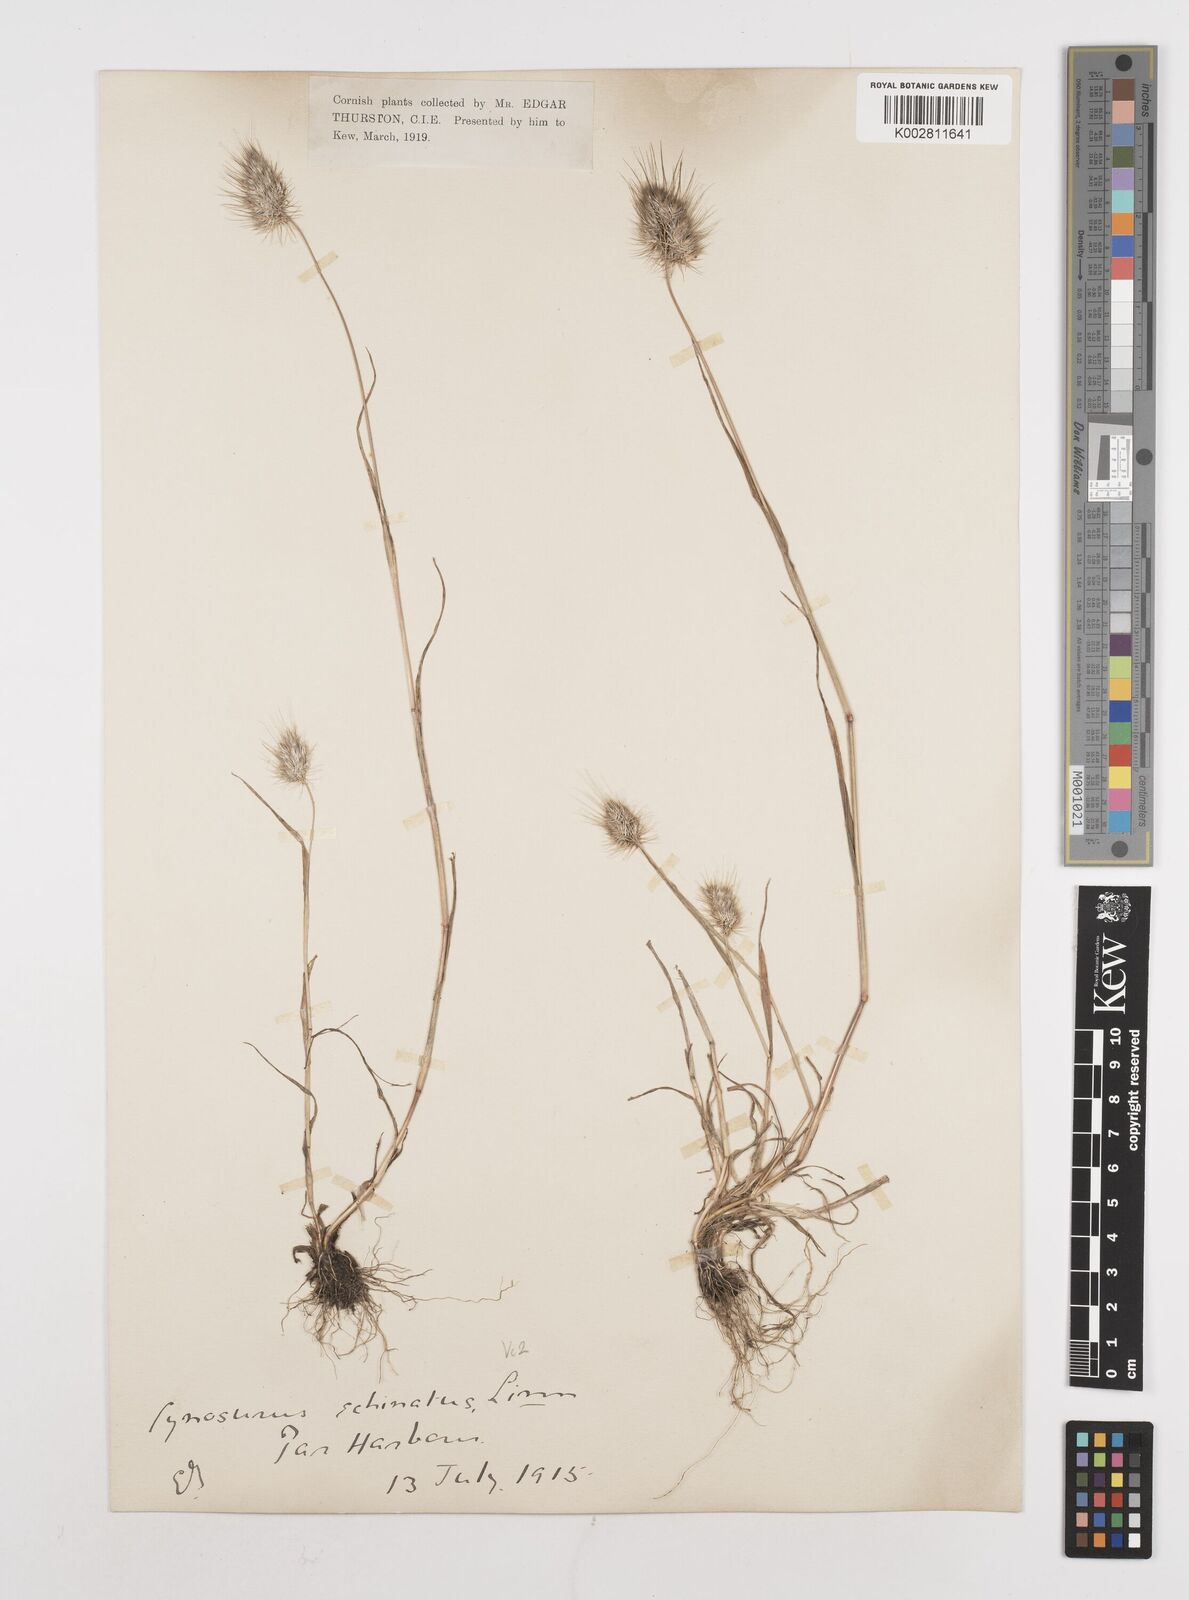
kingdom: Plantae
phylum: Tracheophyta
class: Liliopsida
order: Poales
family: Poaceae
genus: Cynosurus
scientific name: Cynosurus echinatus
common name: Rough dog's-tail
